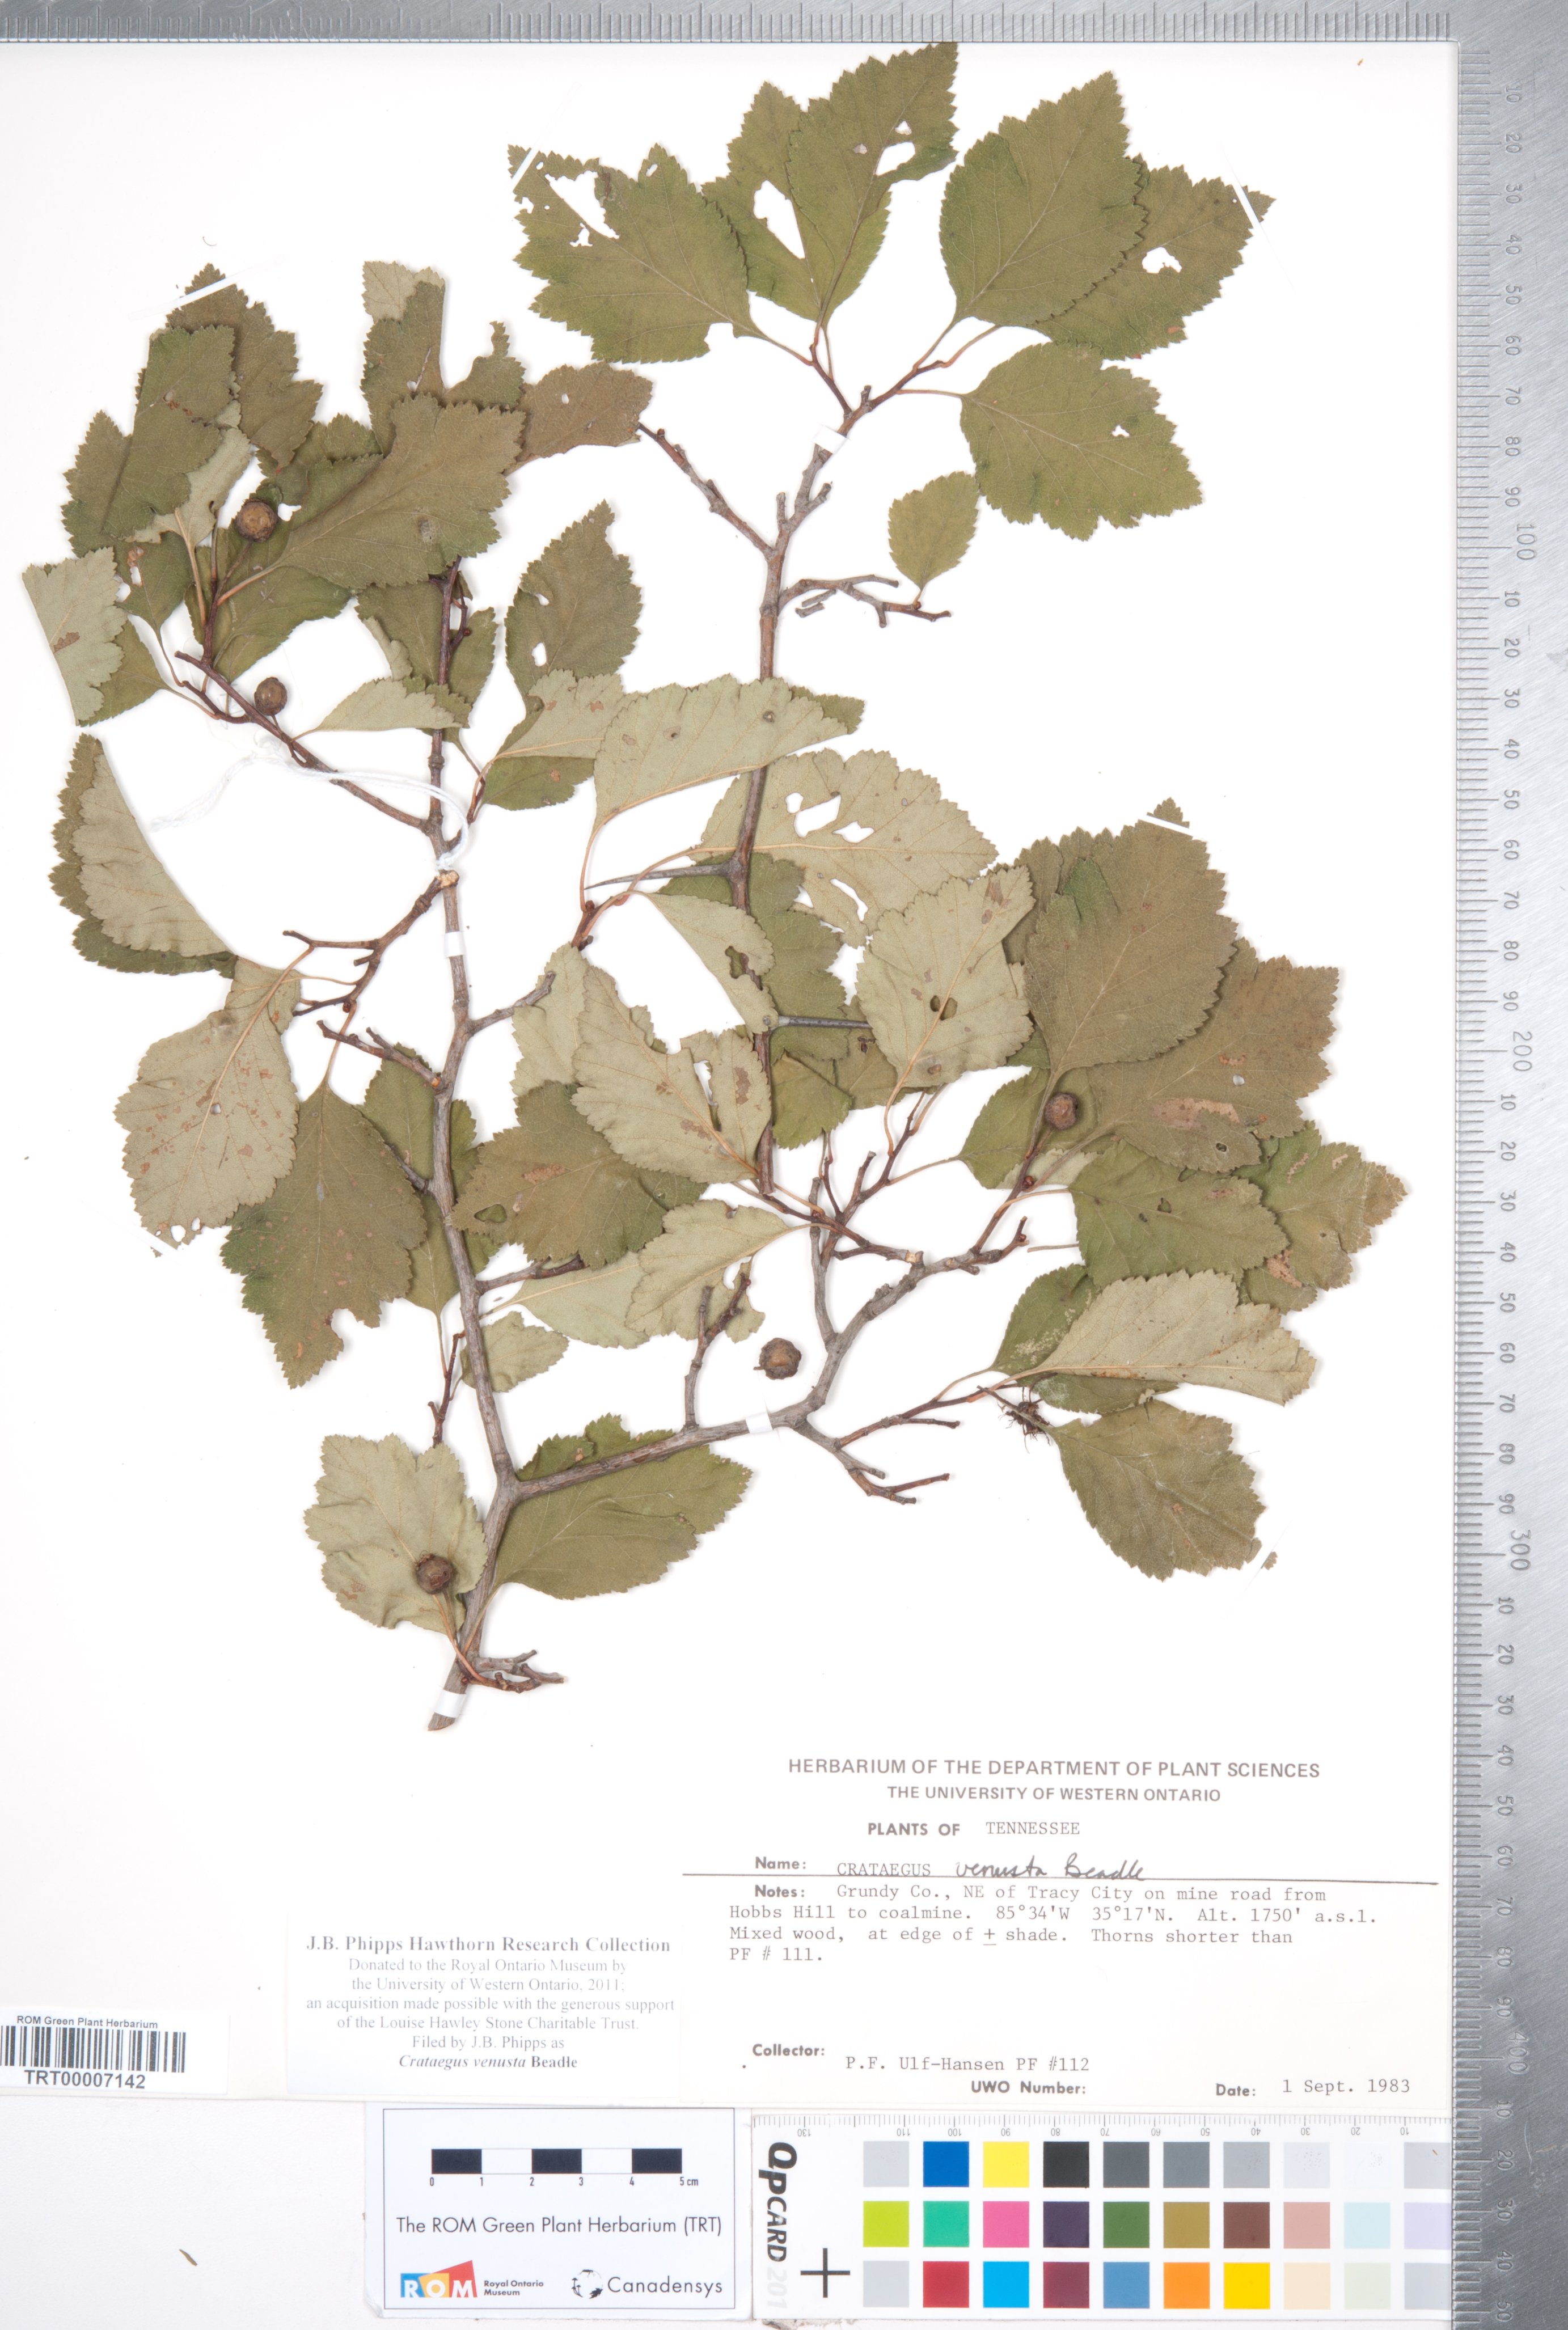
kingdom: Plantae
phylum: Tracheophyta
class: Magnoliopsida
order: Rosales
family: Rosaceae
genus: Crataegus
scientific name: Crataegus venusta
